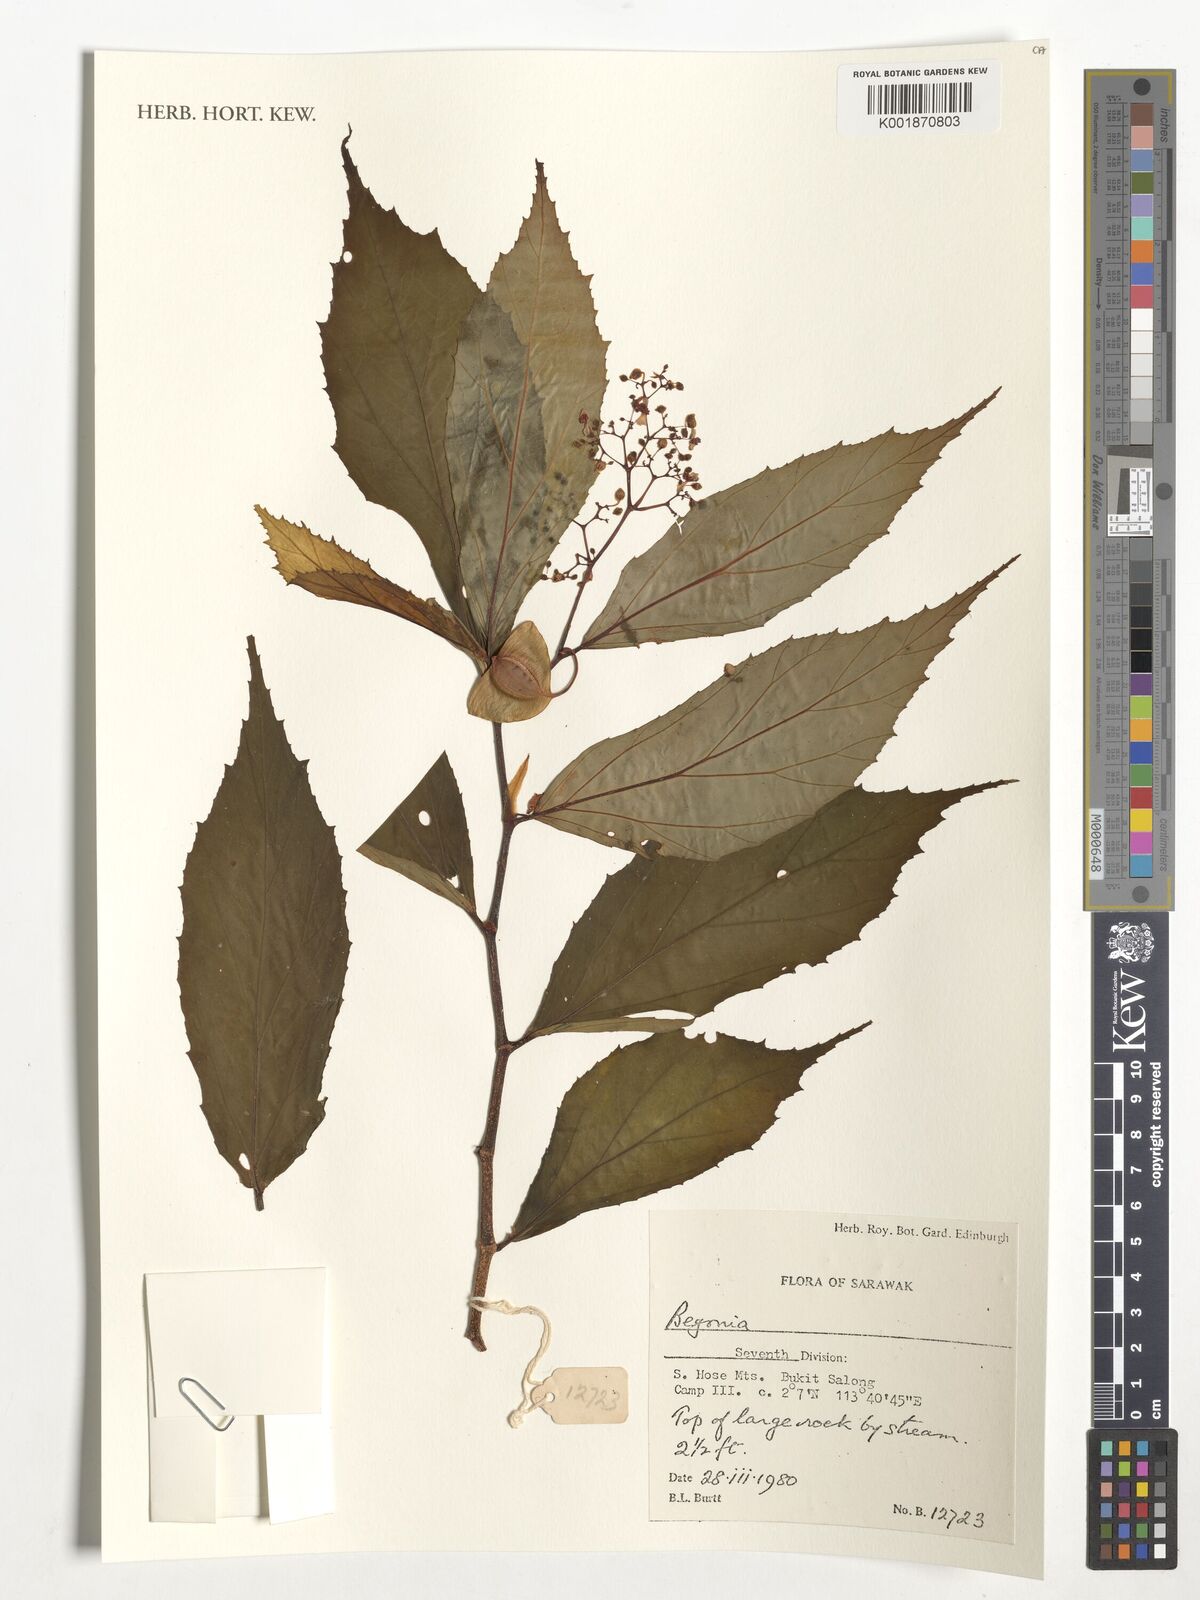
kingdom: Plantae
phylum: Tracheophyta
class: Magnoliopsida
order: Cucurbitales
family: Begoniaceae
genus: Begonia
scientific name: Begonia
